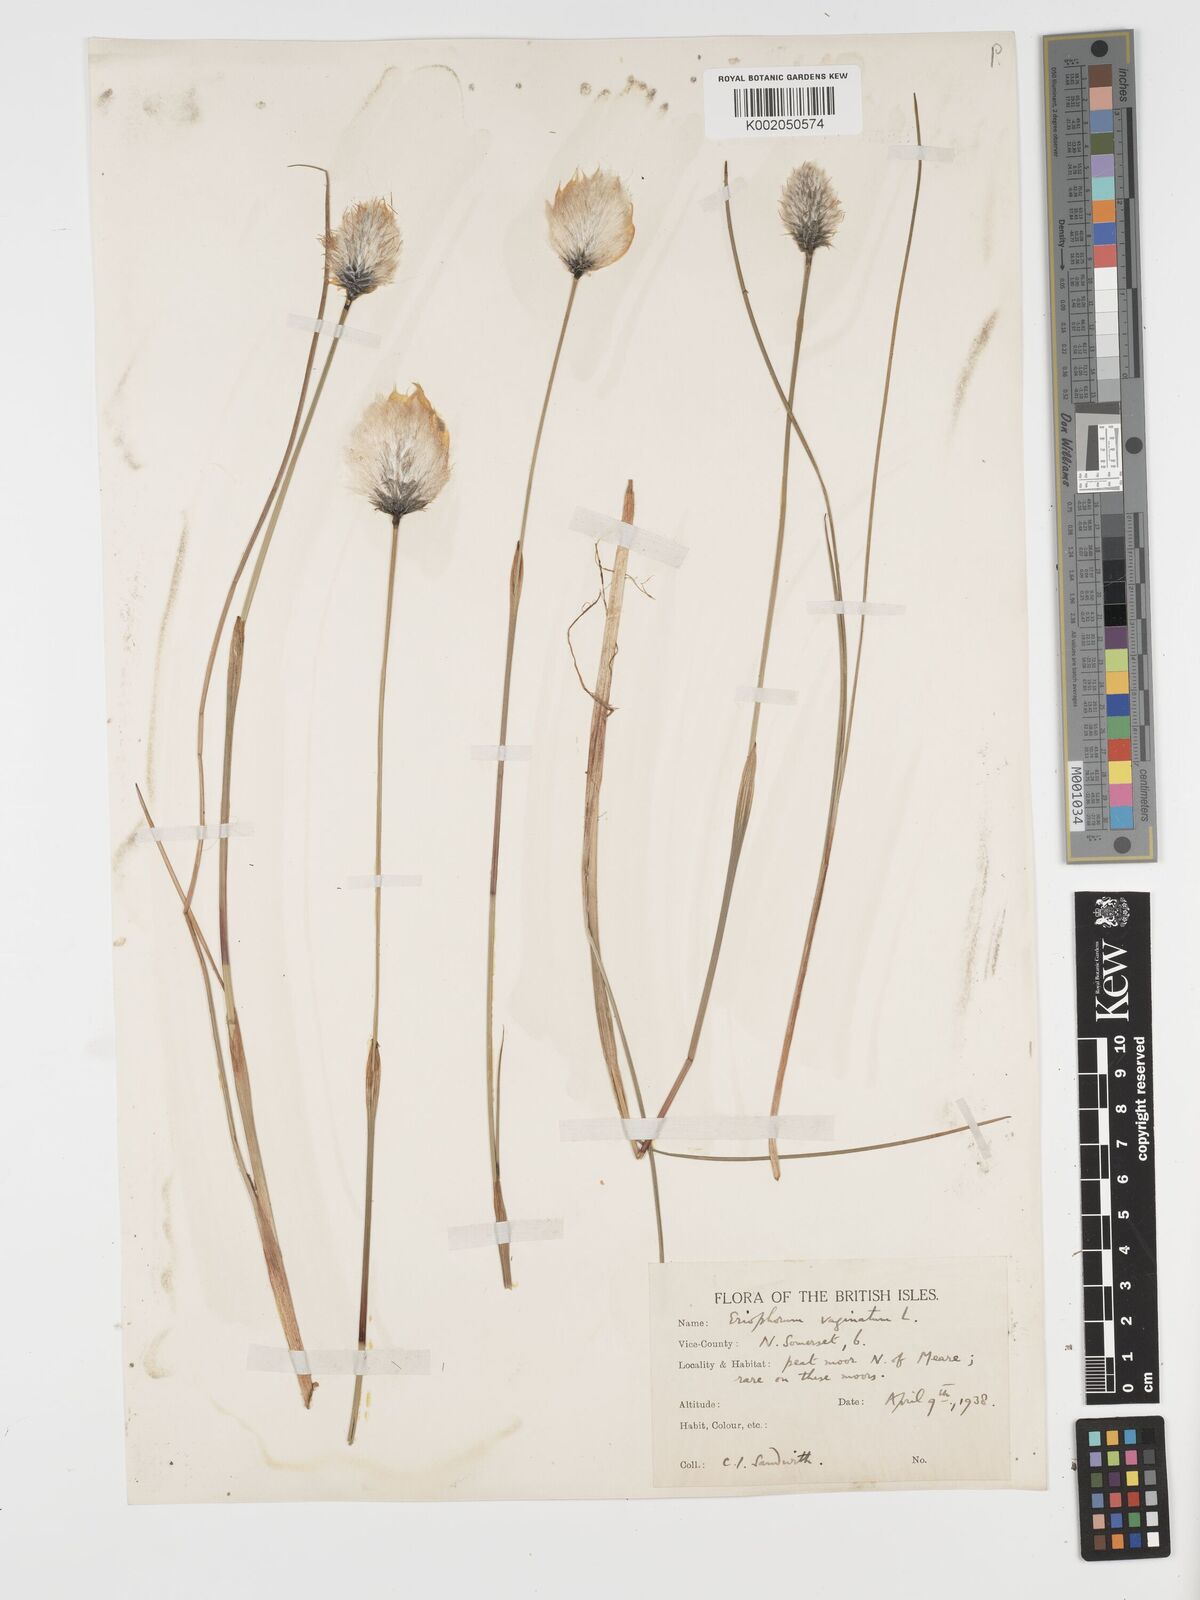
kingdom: Plantae
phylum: Tracheophyta
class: Liliopsida
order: Poales
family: Cyperaceae
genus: Eriophorum
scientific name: Eriophorum vaginatum
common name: Hare's-tail cottongrass
